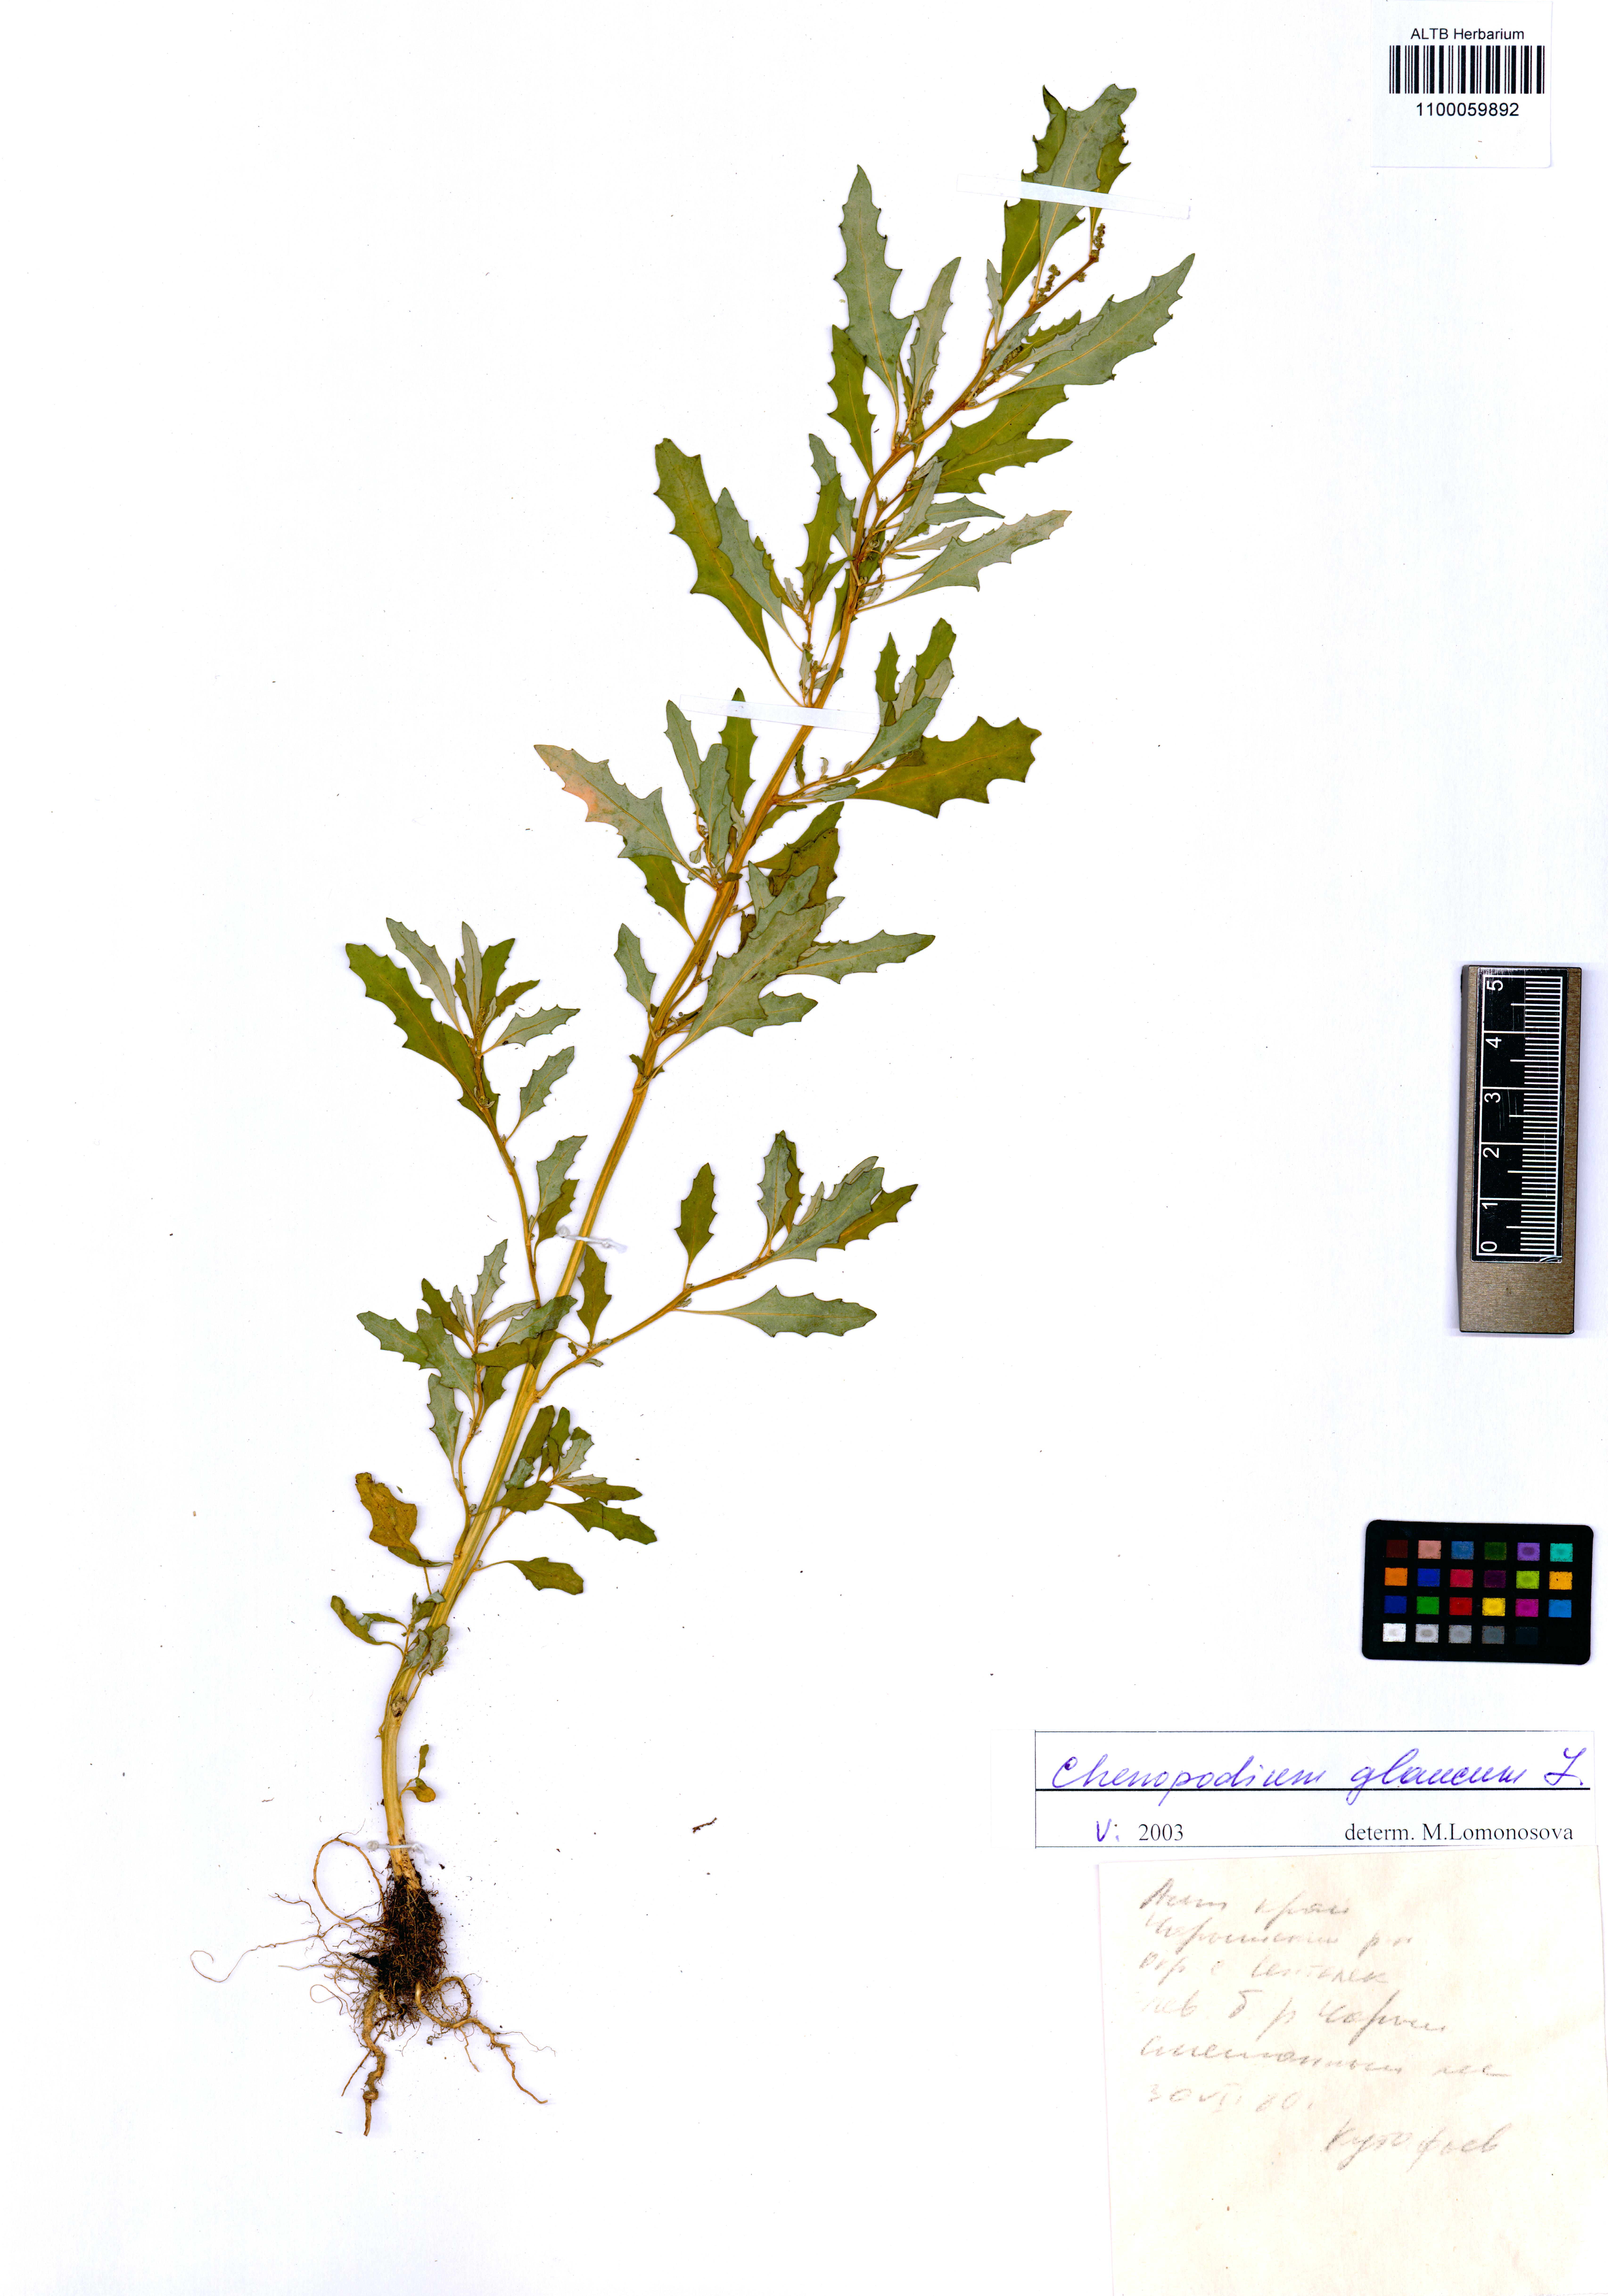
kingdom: Plantae
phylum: Tracheophyta
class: Magnoliopsida
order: Caryophyllales
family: Amaranthaceae
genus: Oxybasis
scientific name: Oxybasis glauca
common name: Glaucous goosefoot
